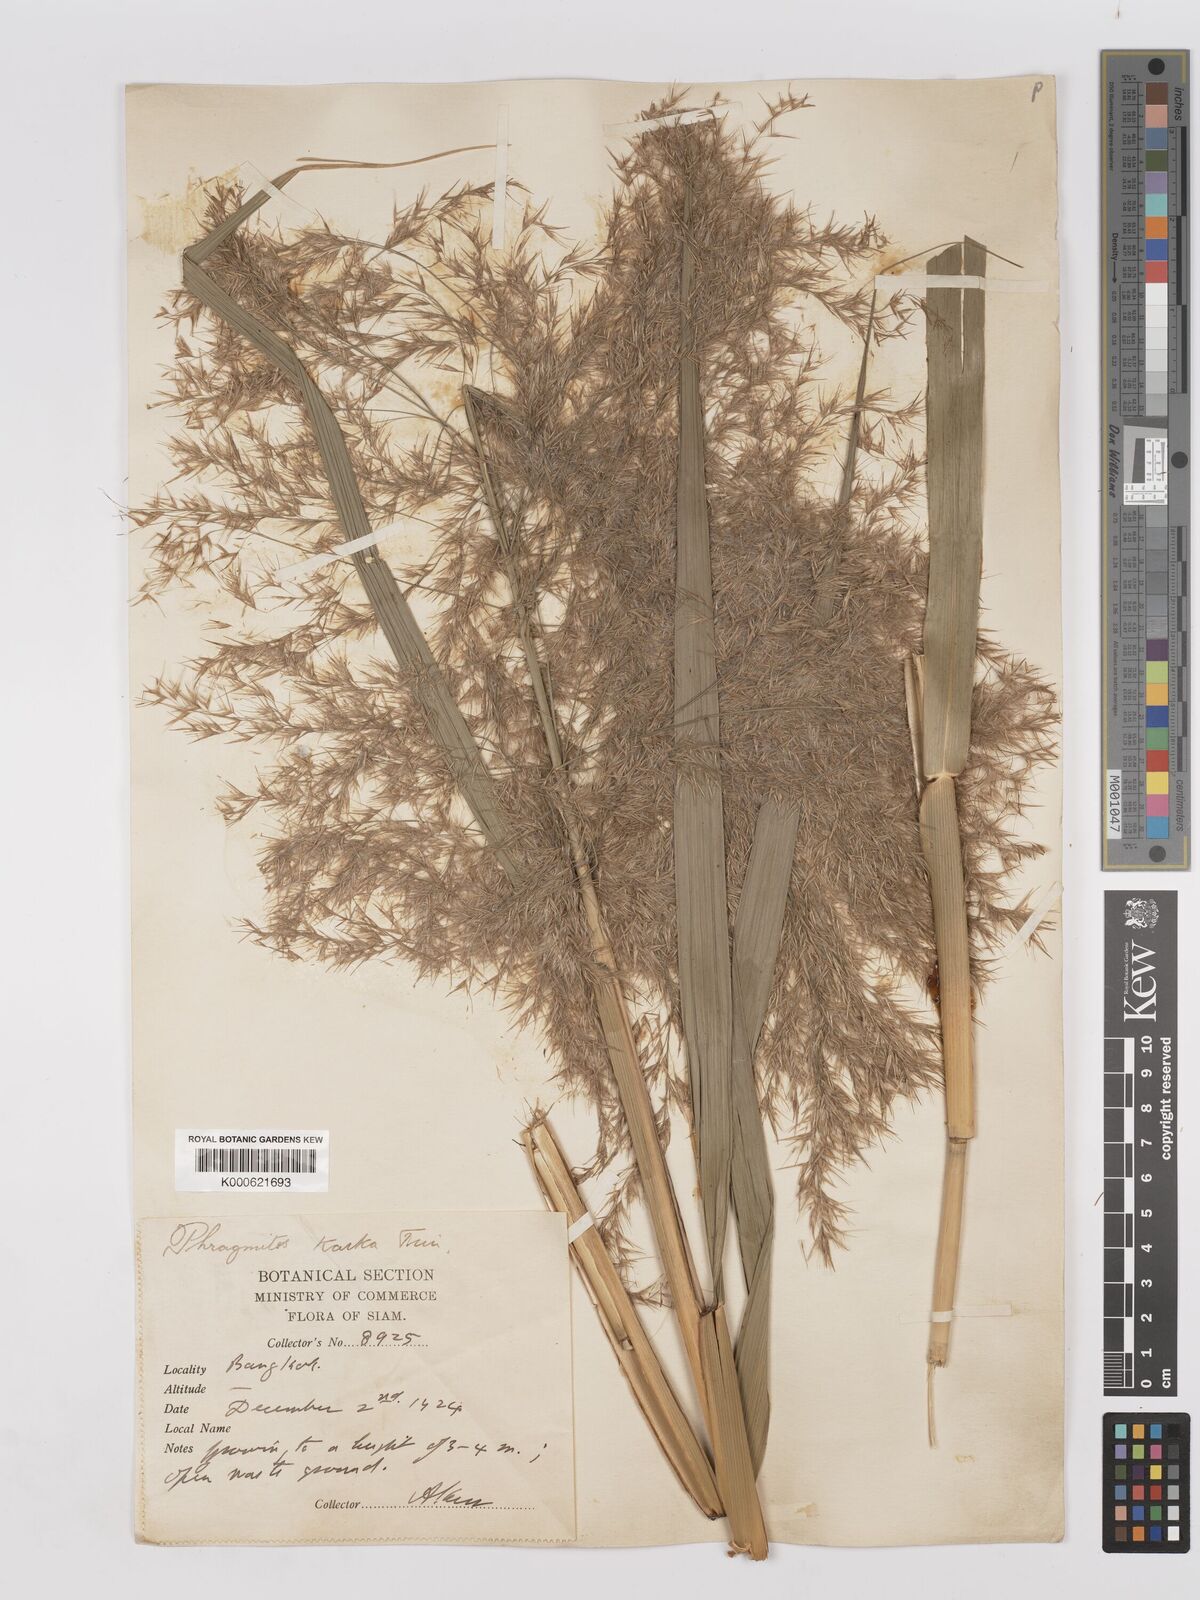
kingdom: Plantae
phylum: Tracheophyta
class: Liliopsida
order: Poales
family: Poaceae
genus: Phragmites
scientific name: Phragmites karka
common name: Tropical reed
